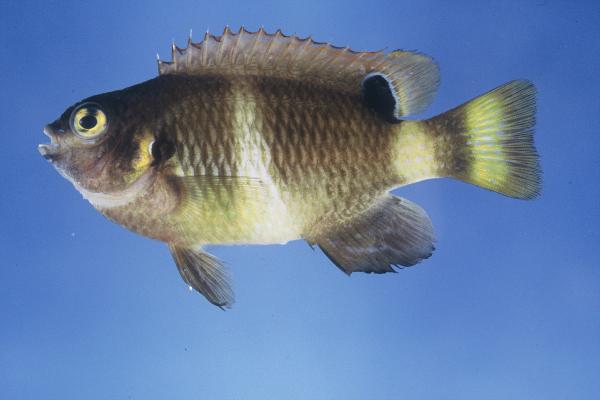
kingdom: Animalia
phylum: Chordata
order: Perciformes
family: Pomacentridae
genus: Chrysiptera
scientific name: Chrysiptera unimaculata
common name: Onespot demoiselle
